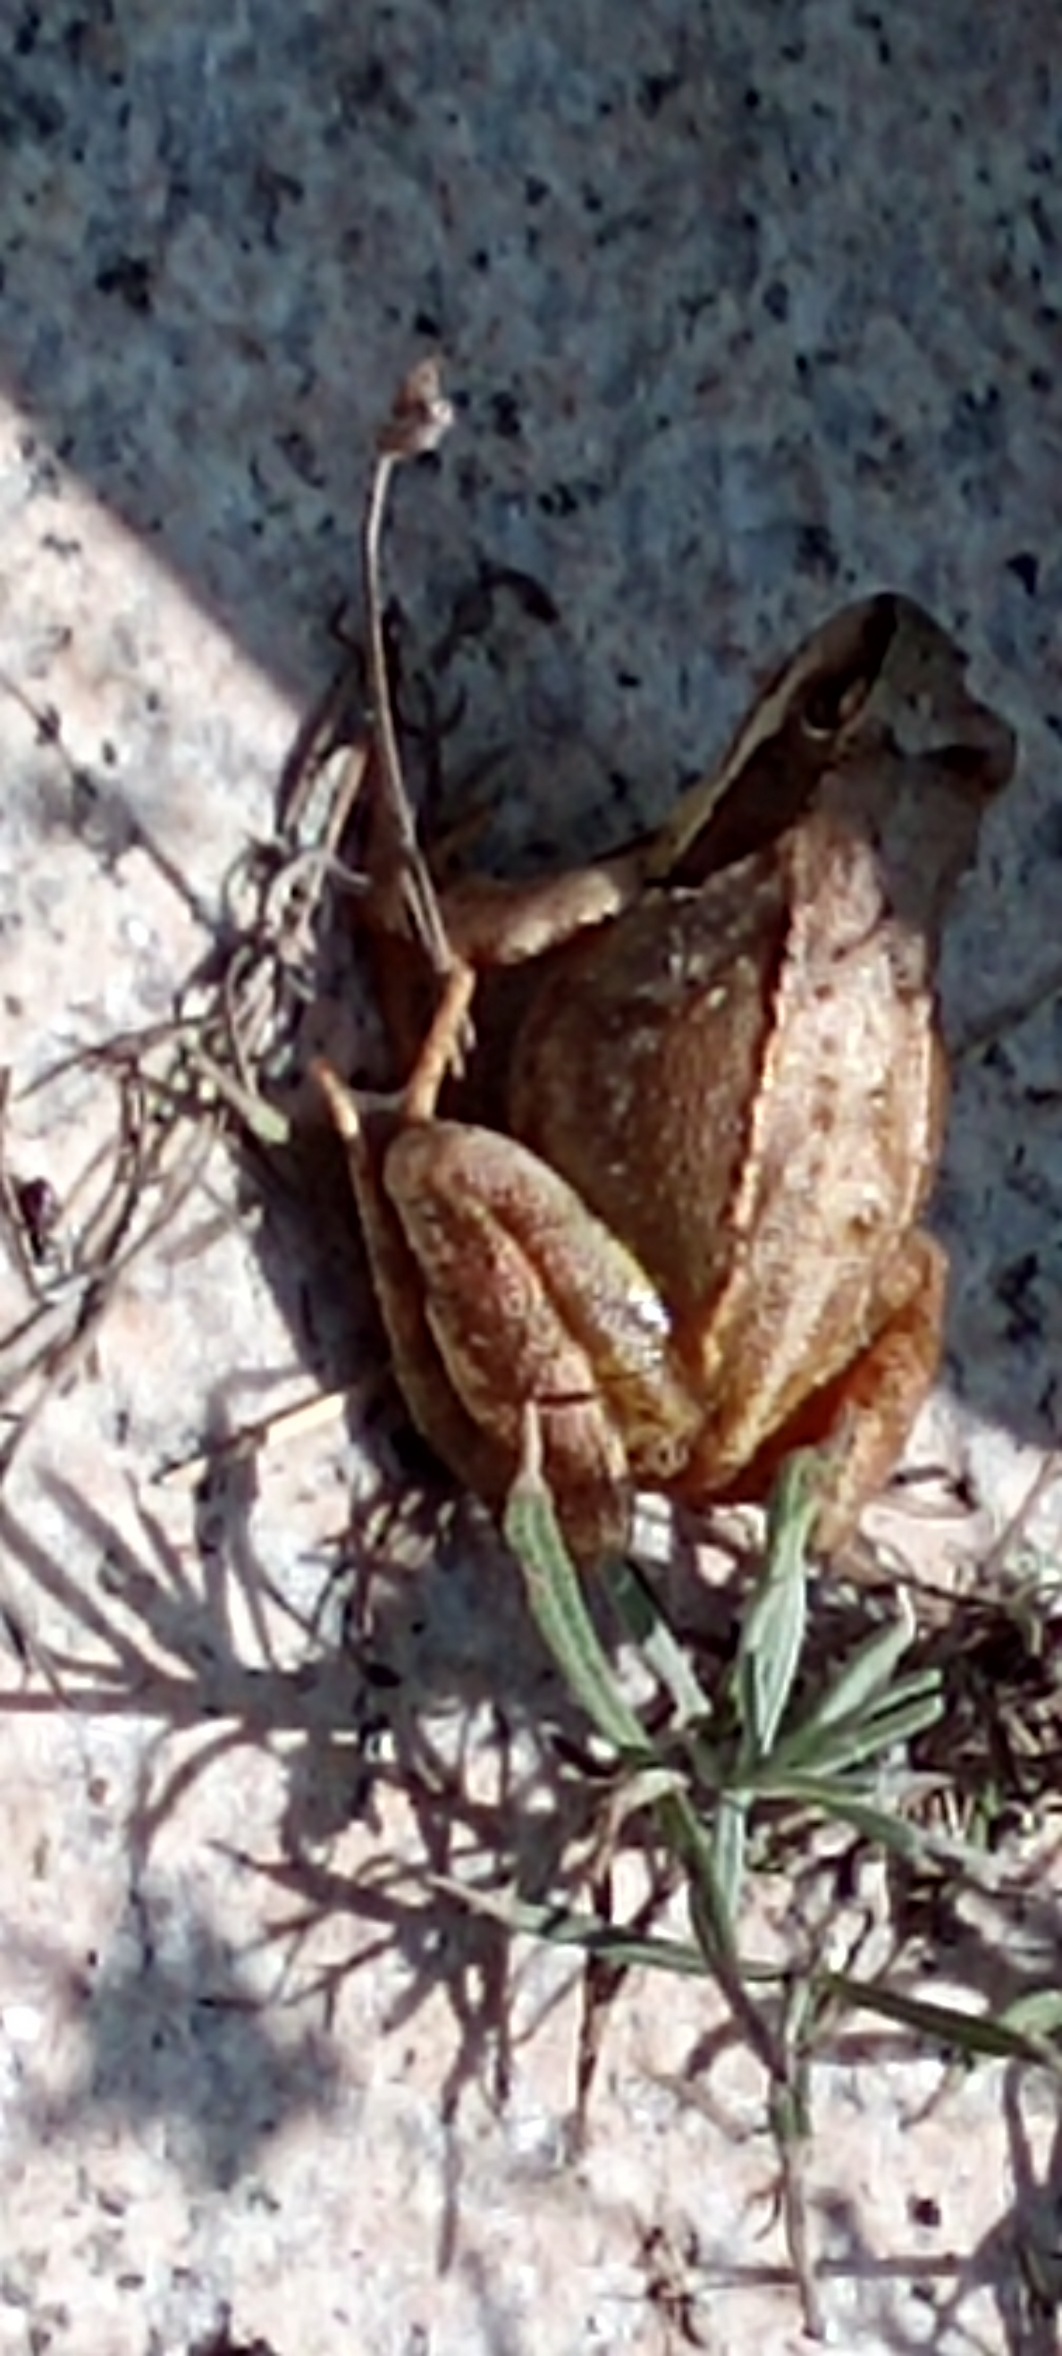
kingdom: Animalia
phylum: Chordata
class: Amphibia
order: Anura
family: Ranidae
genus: Rana
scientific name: Rana temporaria
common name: Butsnudet frø
